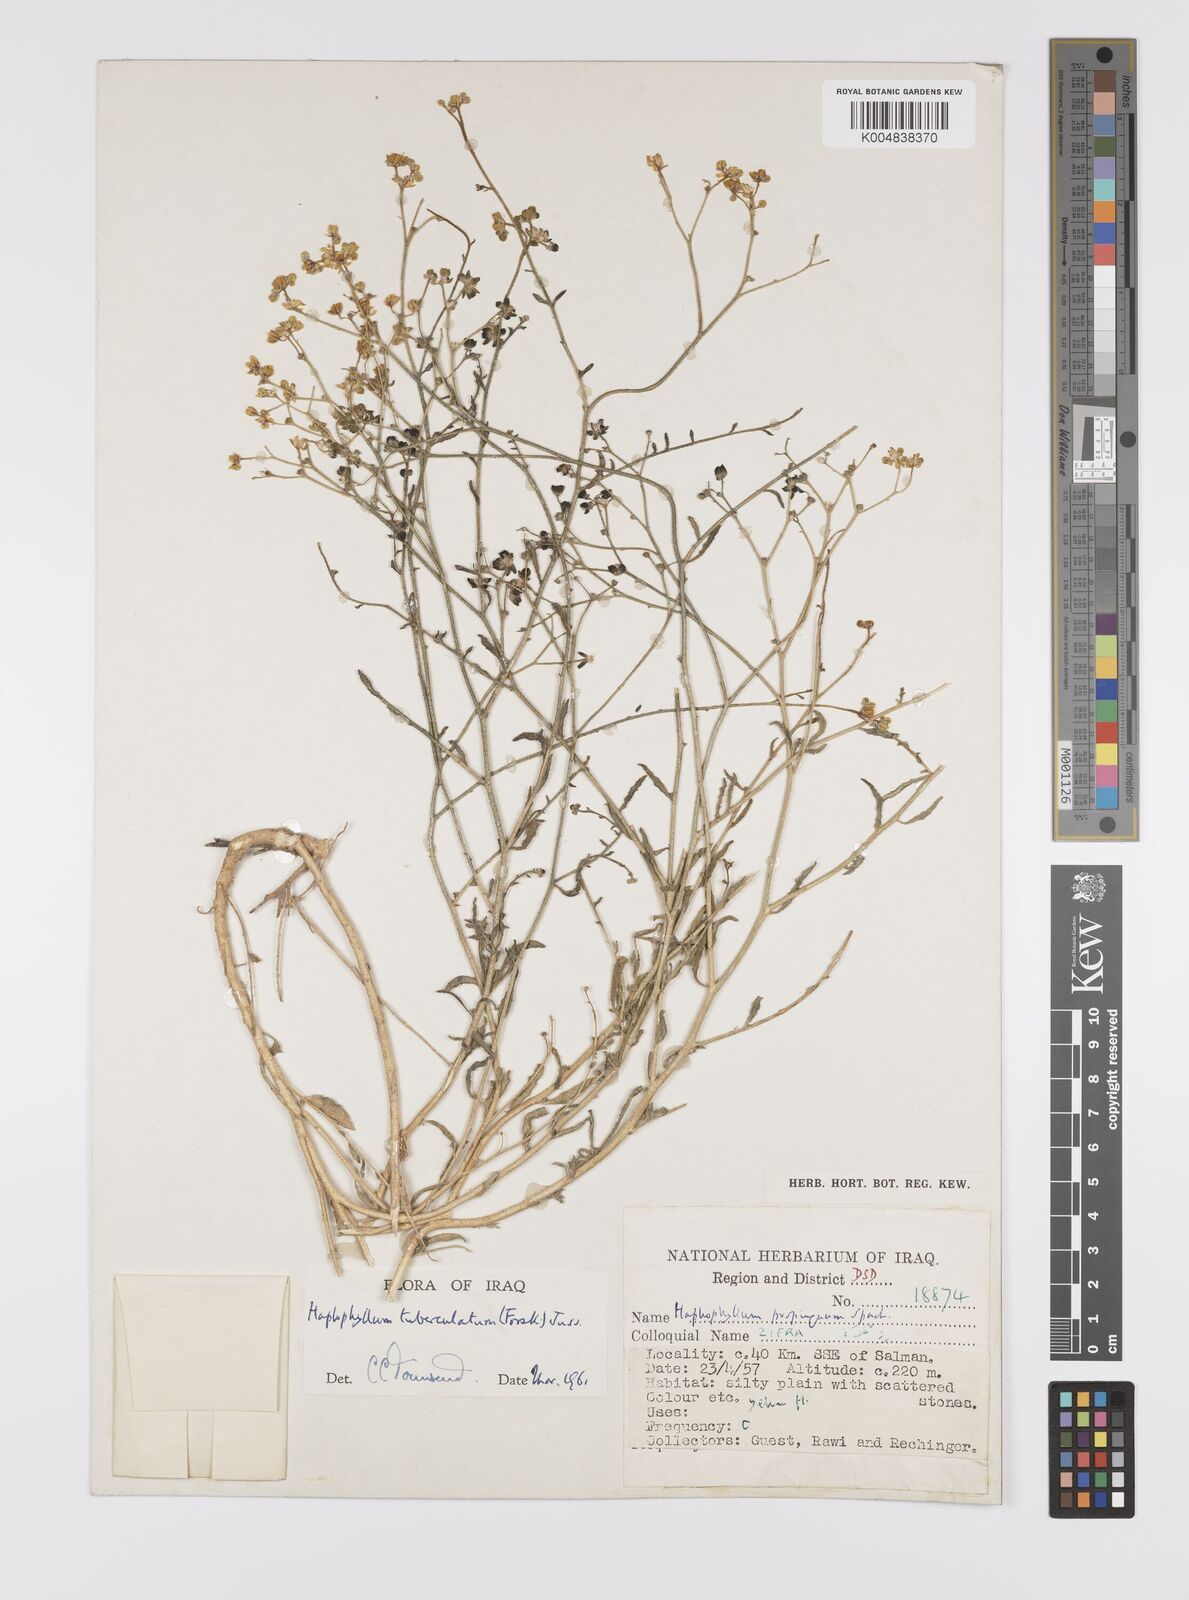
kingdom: Plantae
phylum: Tracheophyta
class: Magnoliopsida
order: Sapindales
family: Rutaceae
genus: Haplophyllum
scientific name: Haplophyllum tuberculatum
